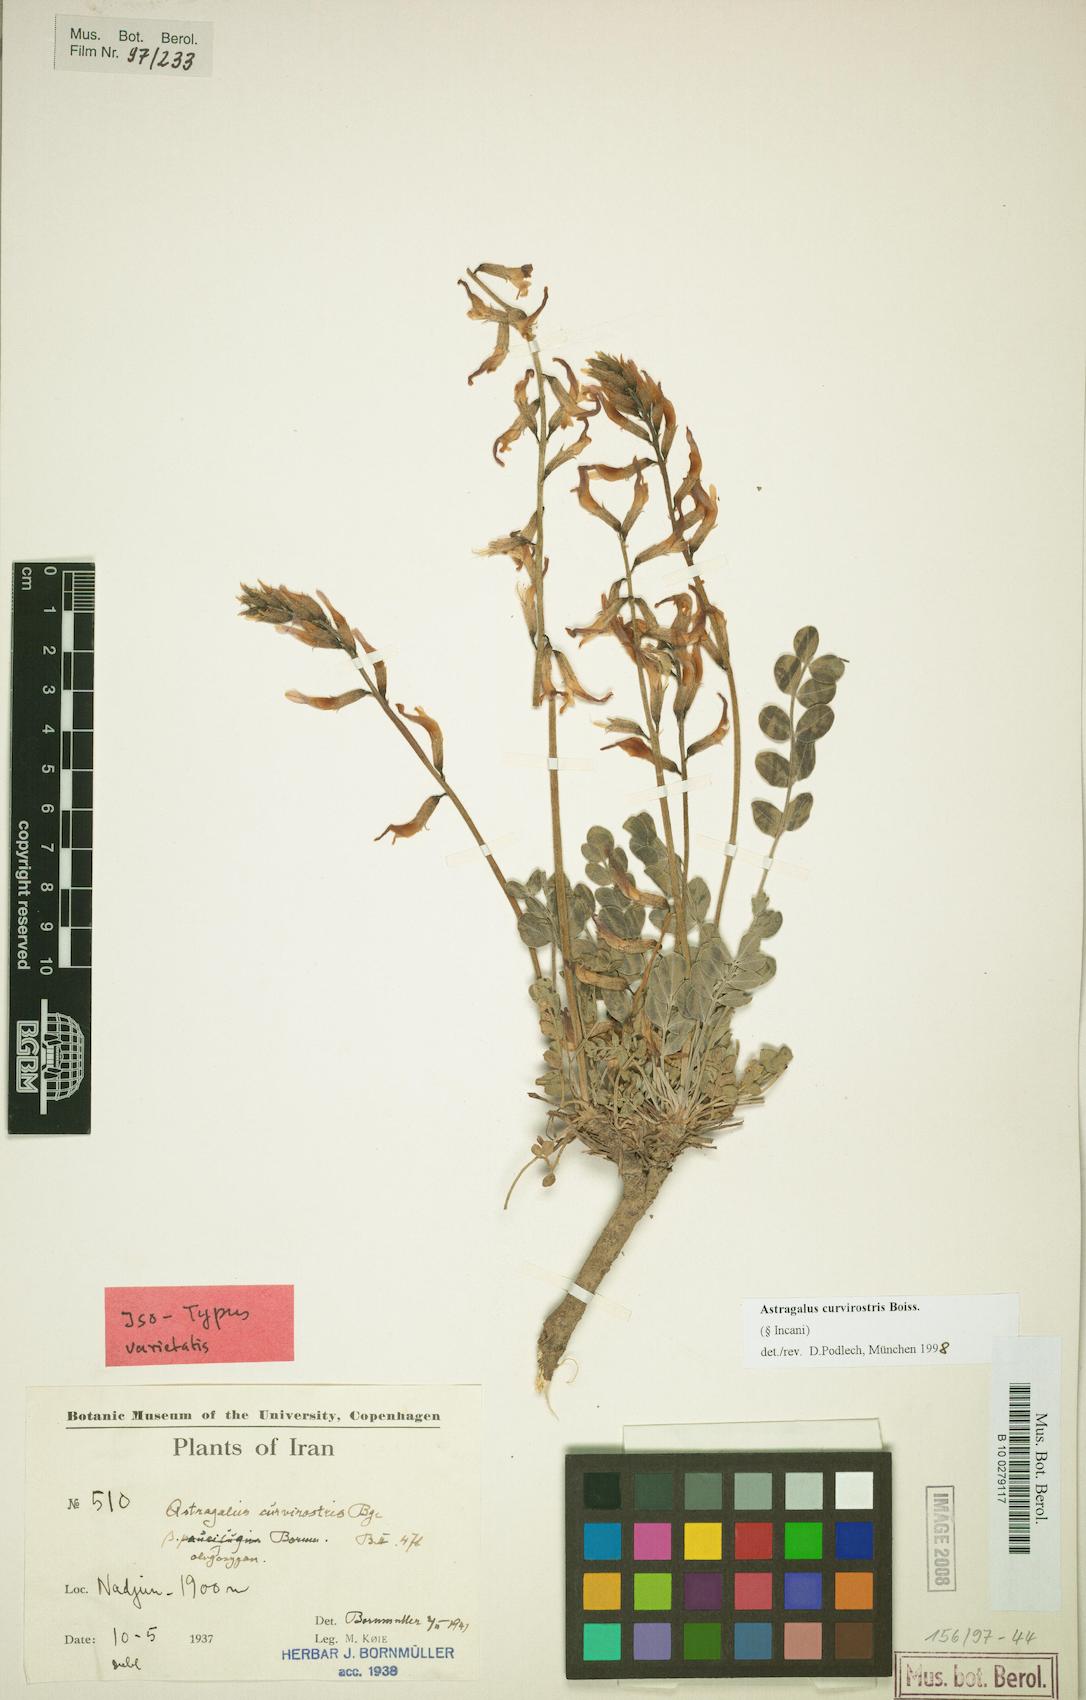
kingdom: Plantae
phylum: Tracheophyta
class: Magnoliopsida
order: Fabales
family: Fabaceae
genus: Astragalus
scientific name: Astragalus curvirostris
